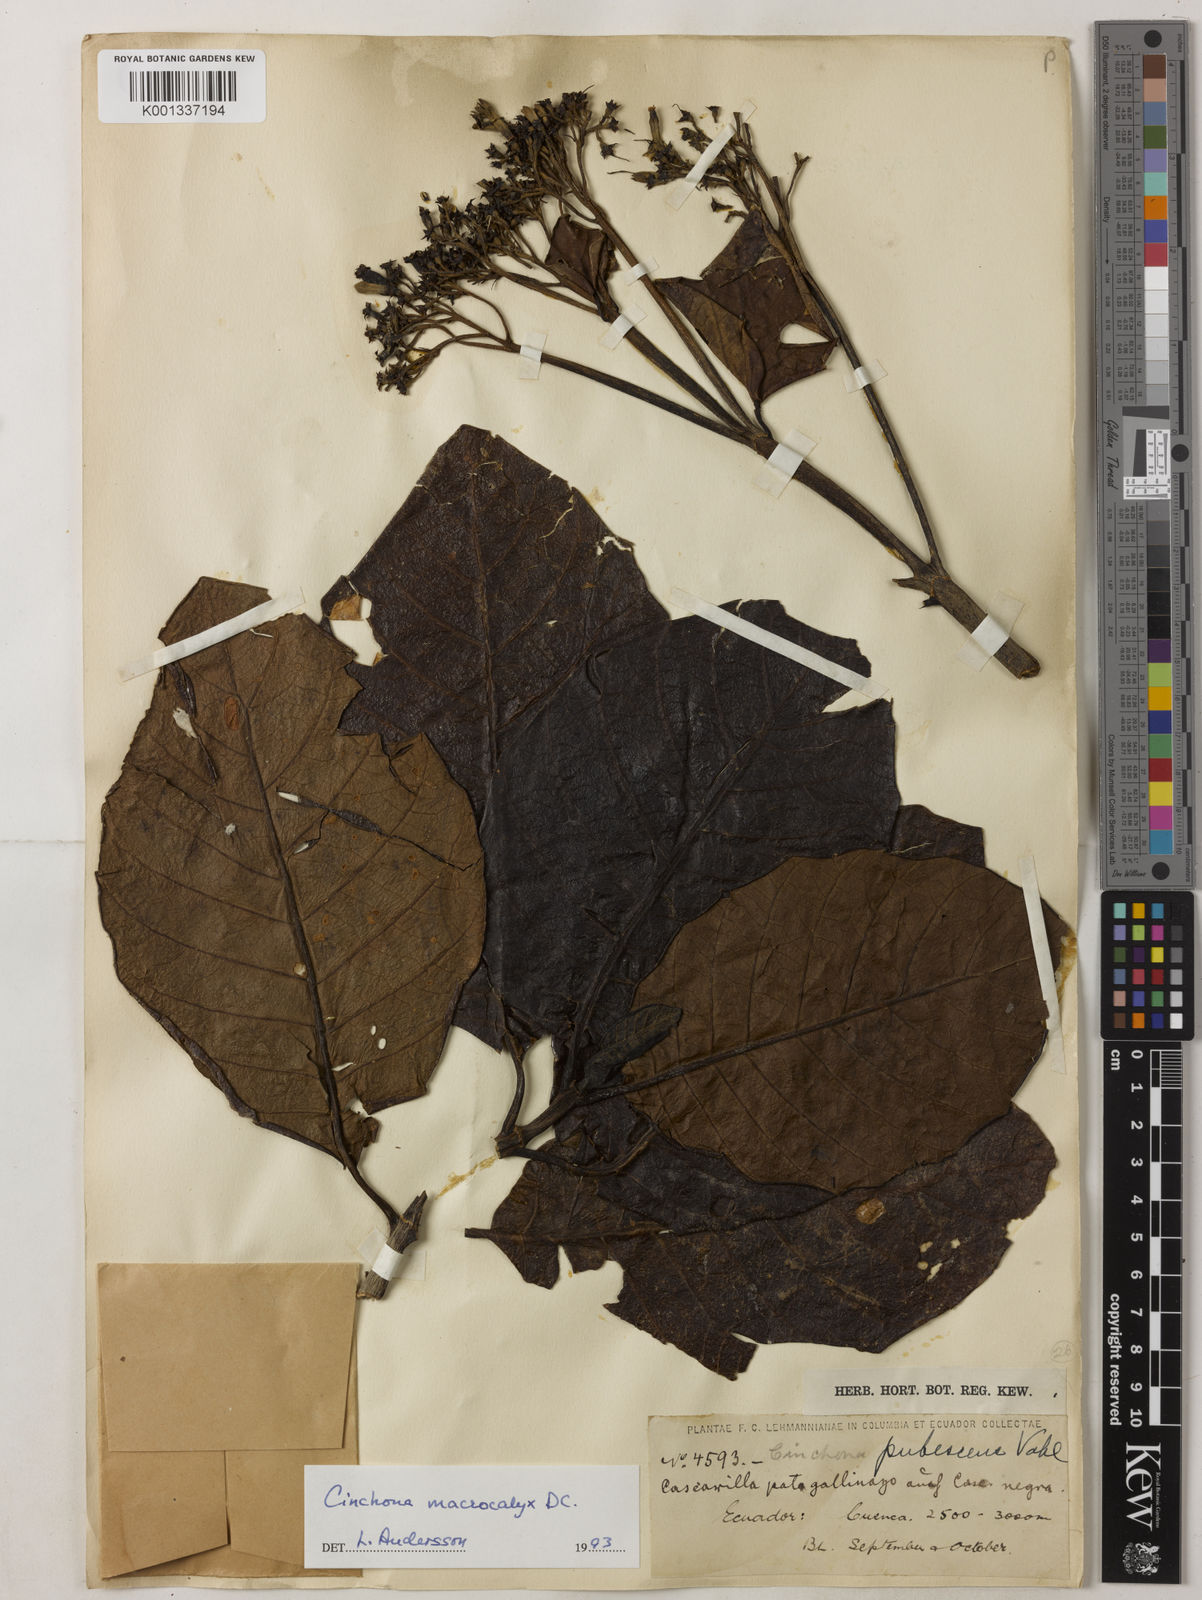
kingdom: Plantae
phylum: Tracheophyta
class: Magnoliopsida
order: Gentianales
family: Rubiaceae
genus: Cinchona
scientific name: Cinchona macrocalyx
